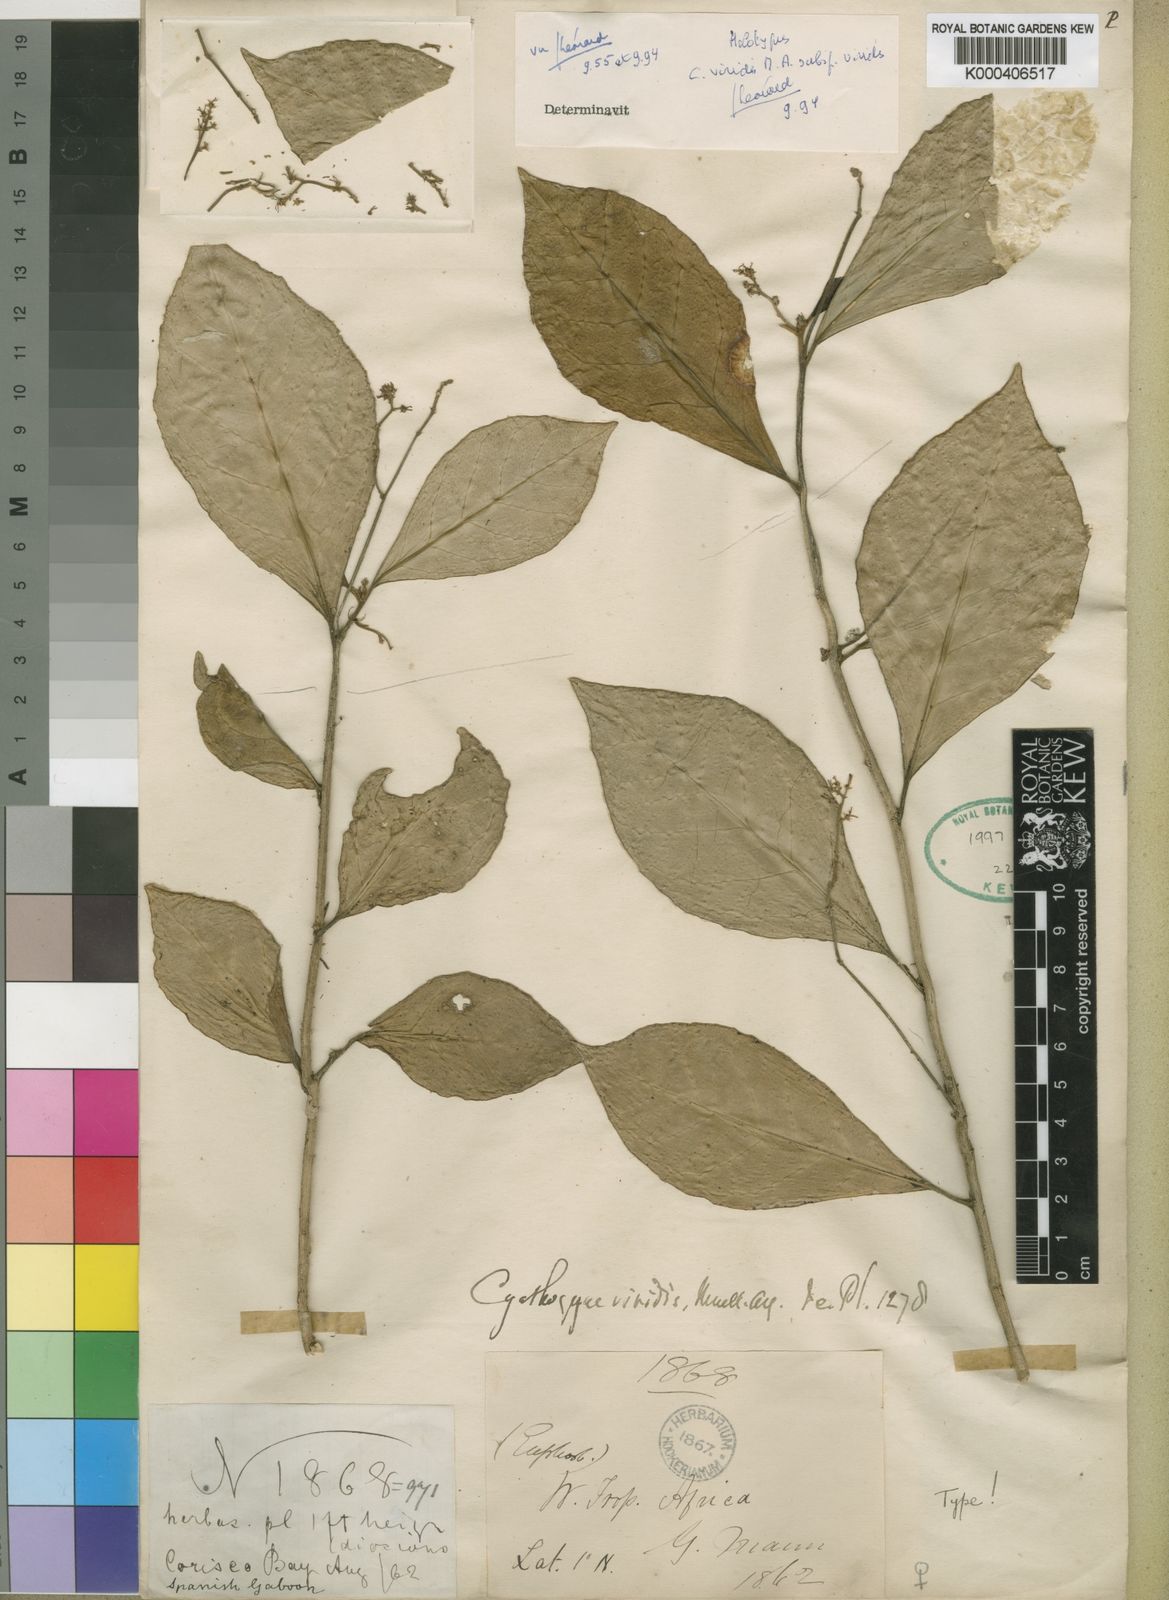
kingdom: Plantae
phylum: Tracheophyta
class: Magnoliopsida
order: Malpighiales
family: Phyllanthaceae
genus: Thecacoris
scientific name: Thecacoris
